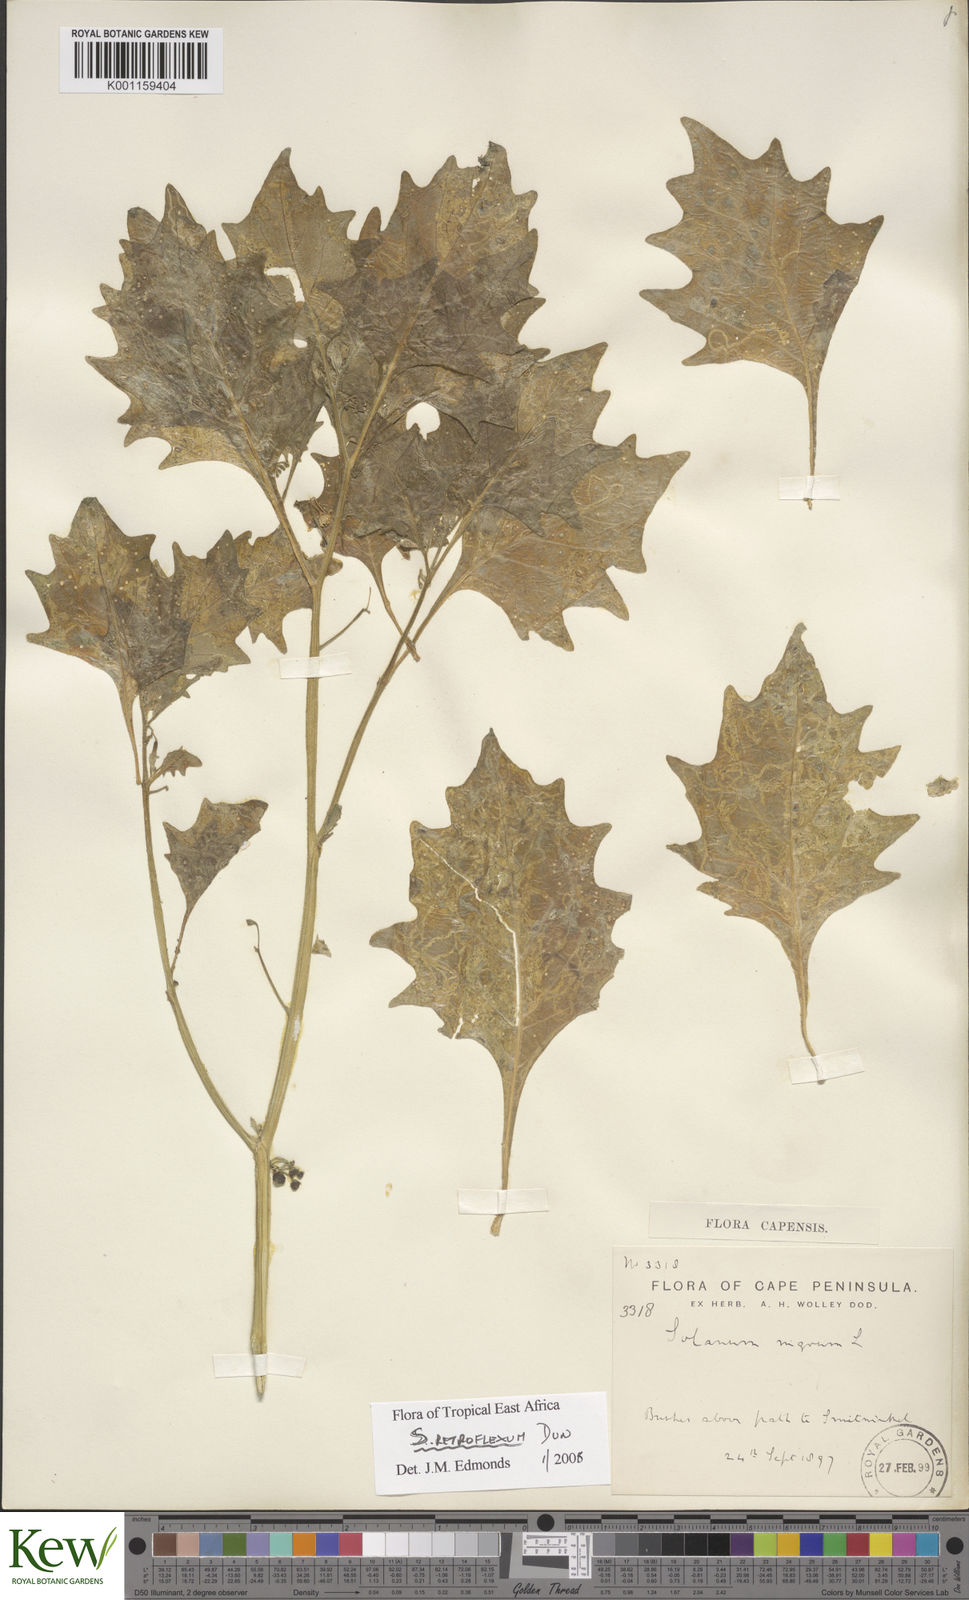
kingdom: Plantae
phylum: Tracheophyta
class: Magnoliopsida
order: Solanales
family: Solanaceae
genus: Solanum
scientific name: Solanum retroflexum
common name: Wonderberry
